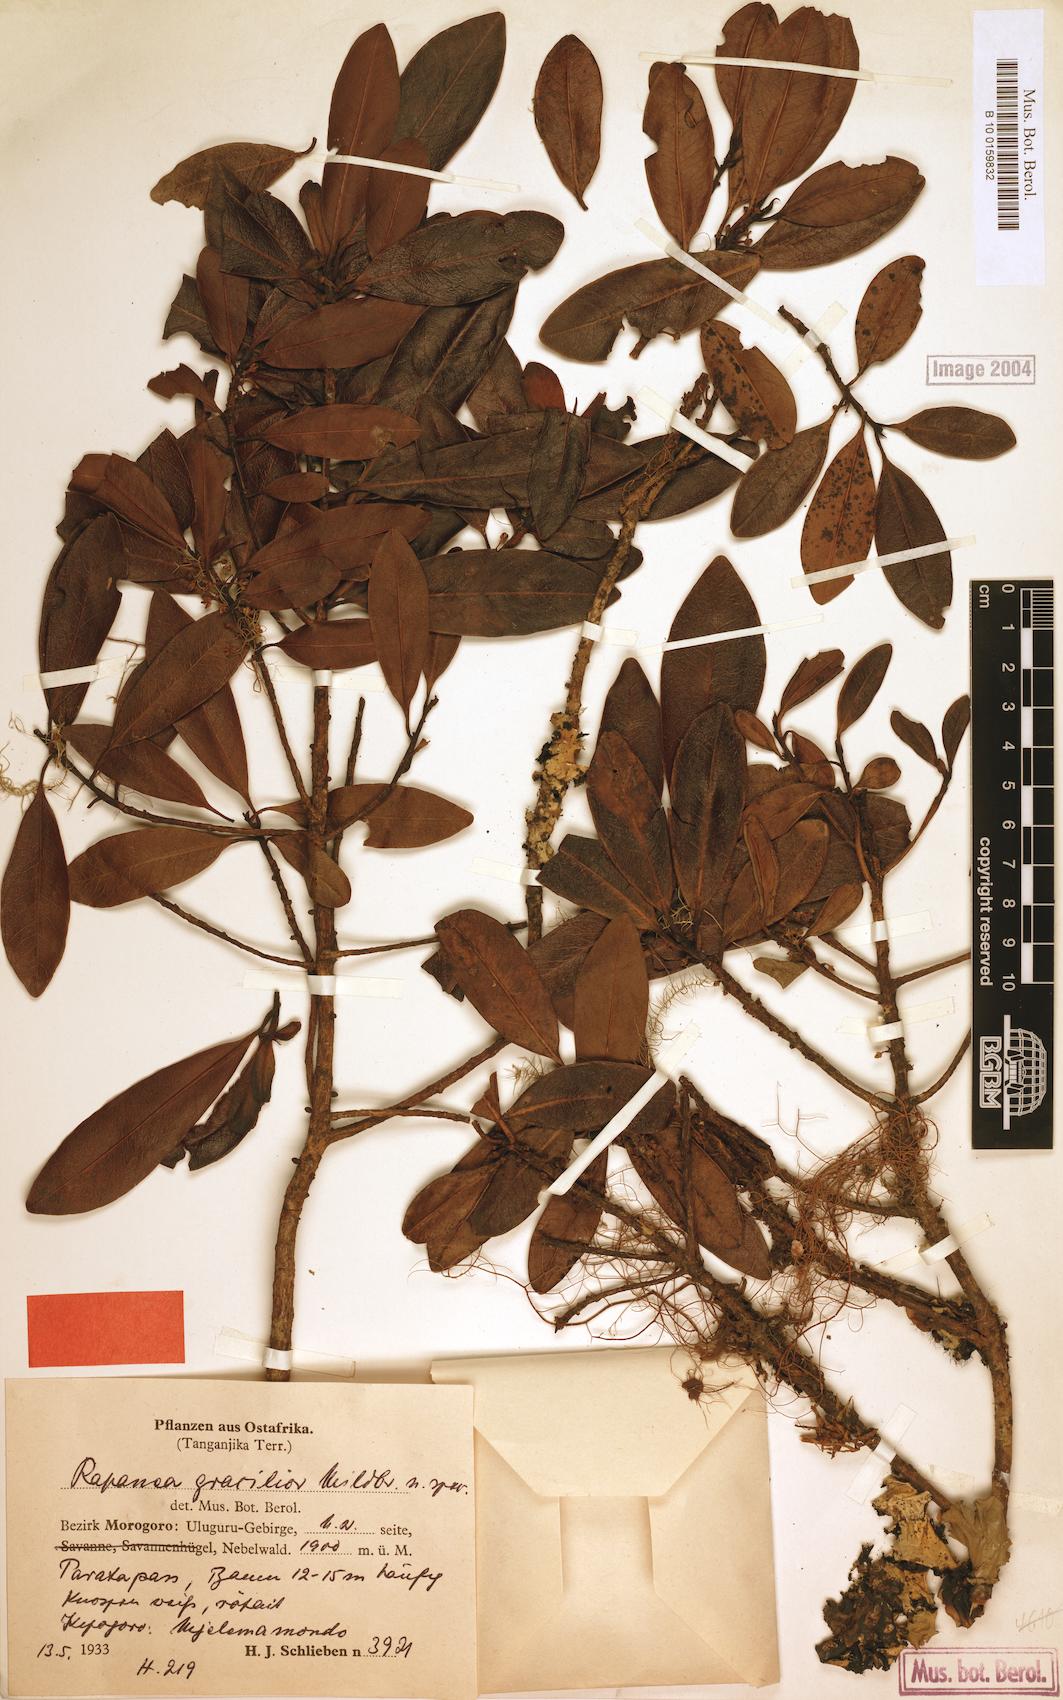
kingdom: Plantae
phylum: Tracheophyta
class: Magnoliopsida
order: Ericales
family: Primulaceae
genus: Myrsine
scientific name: Myrsine melanophloeos
